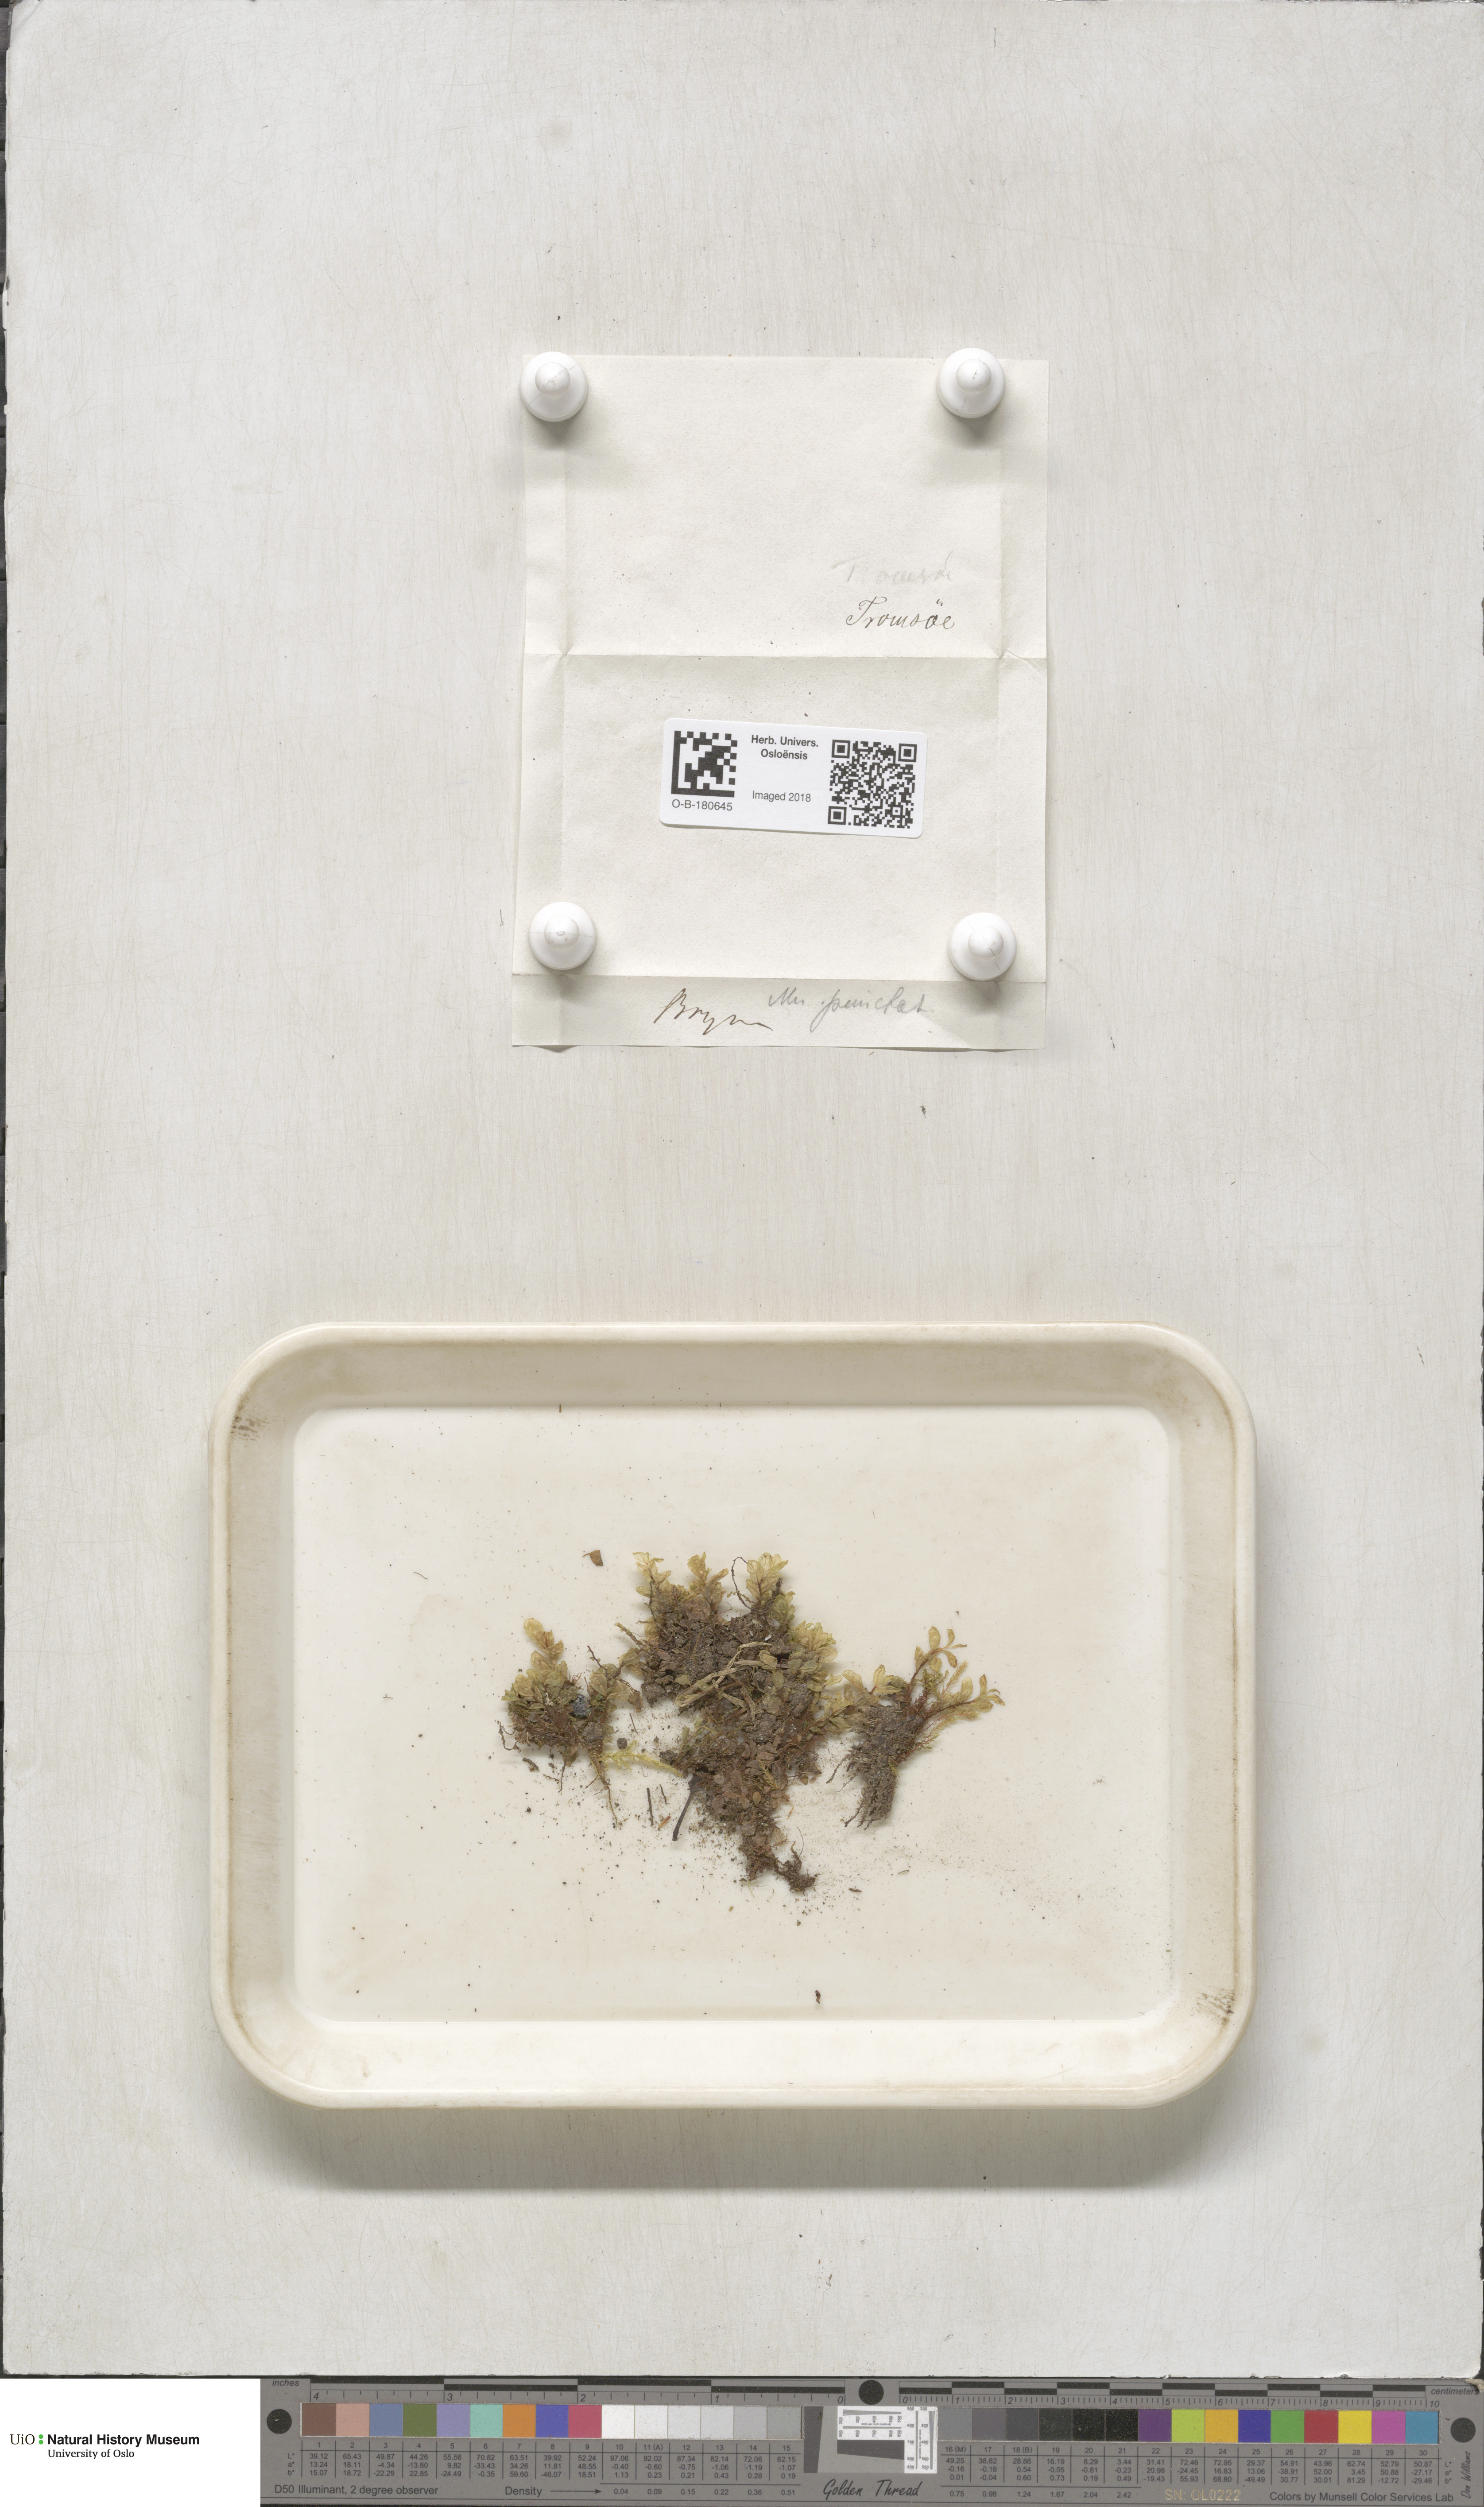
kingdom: Plantae
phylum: Bryophyta
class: Bryopsida
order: Bryales
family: Mniaceae
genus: Rhizomnium
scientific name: Rhizomnium punctatum
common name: Dotted leafy moss
